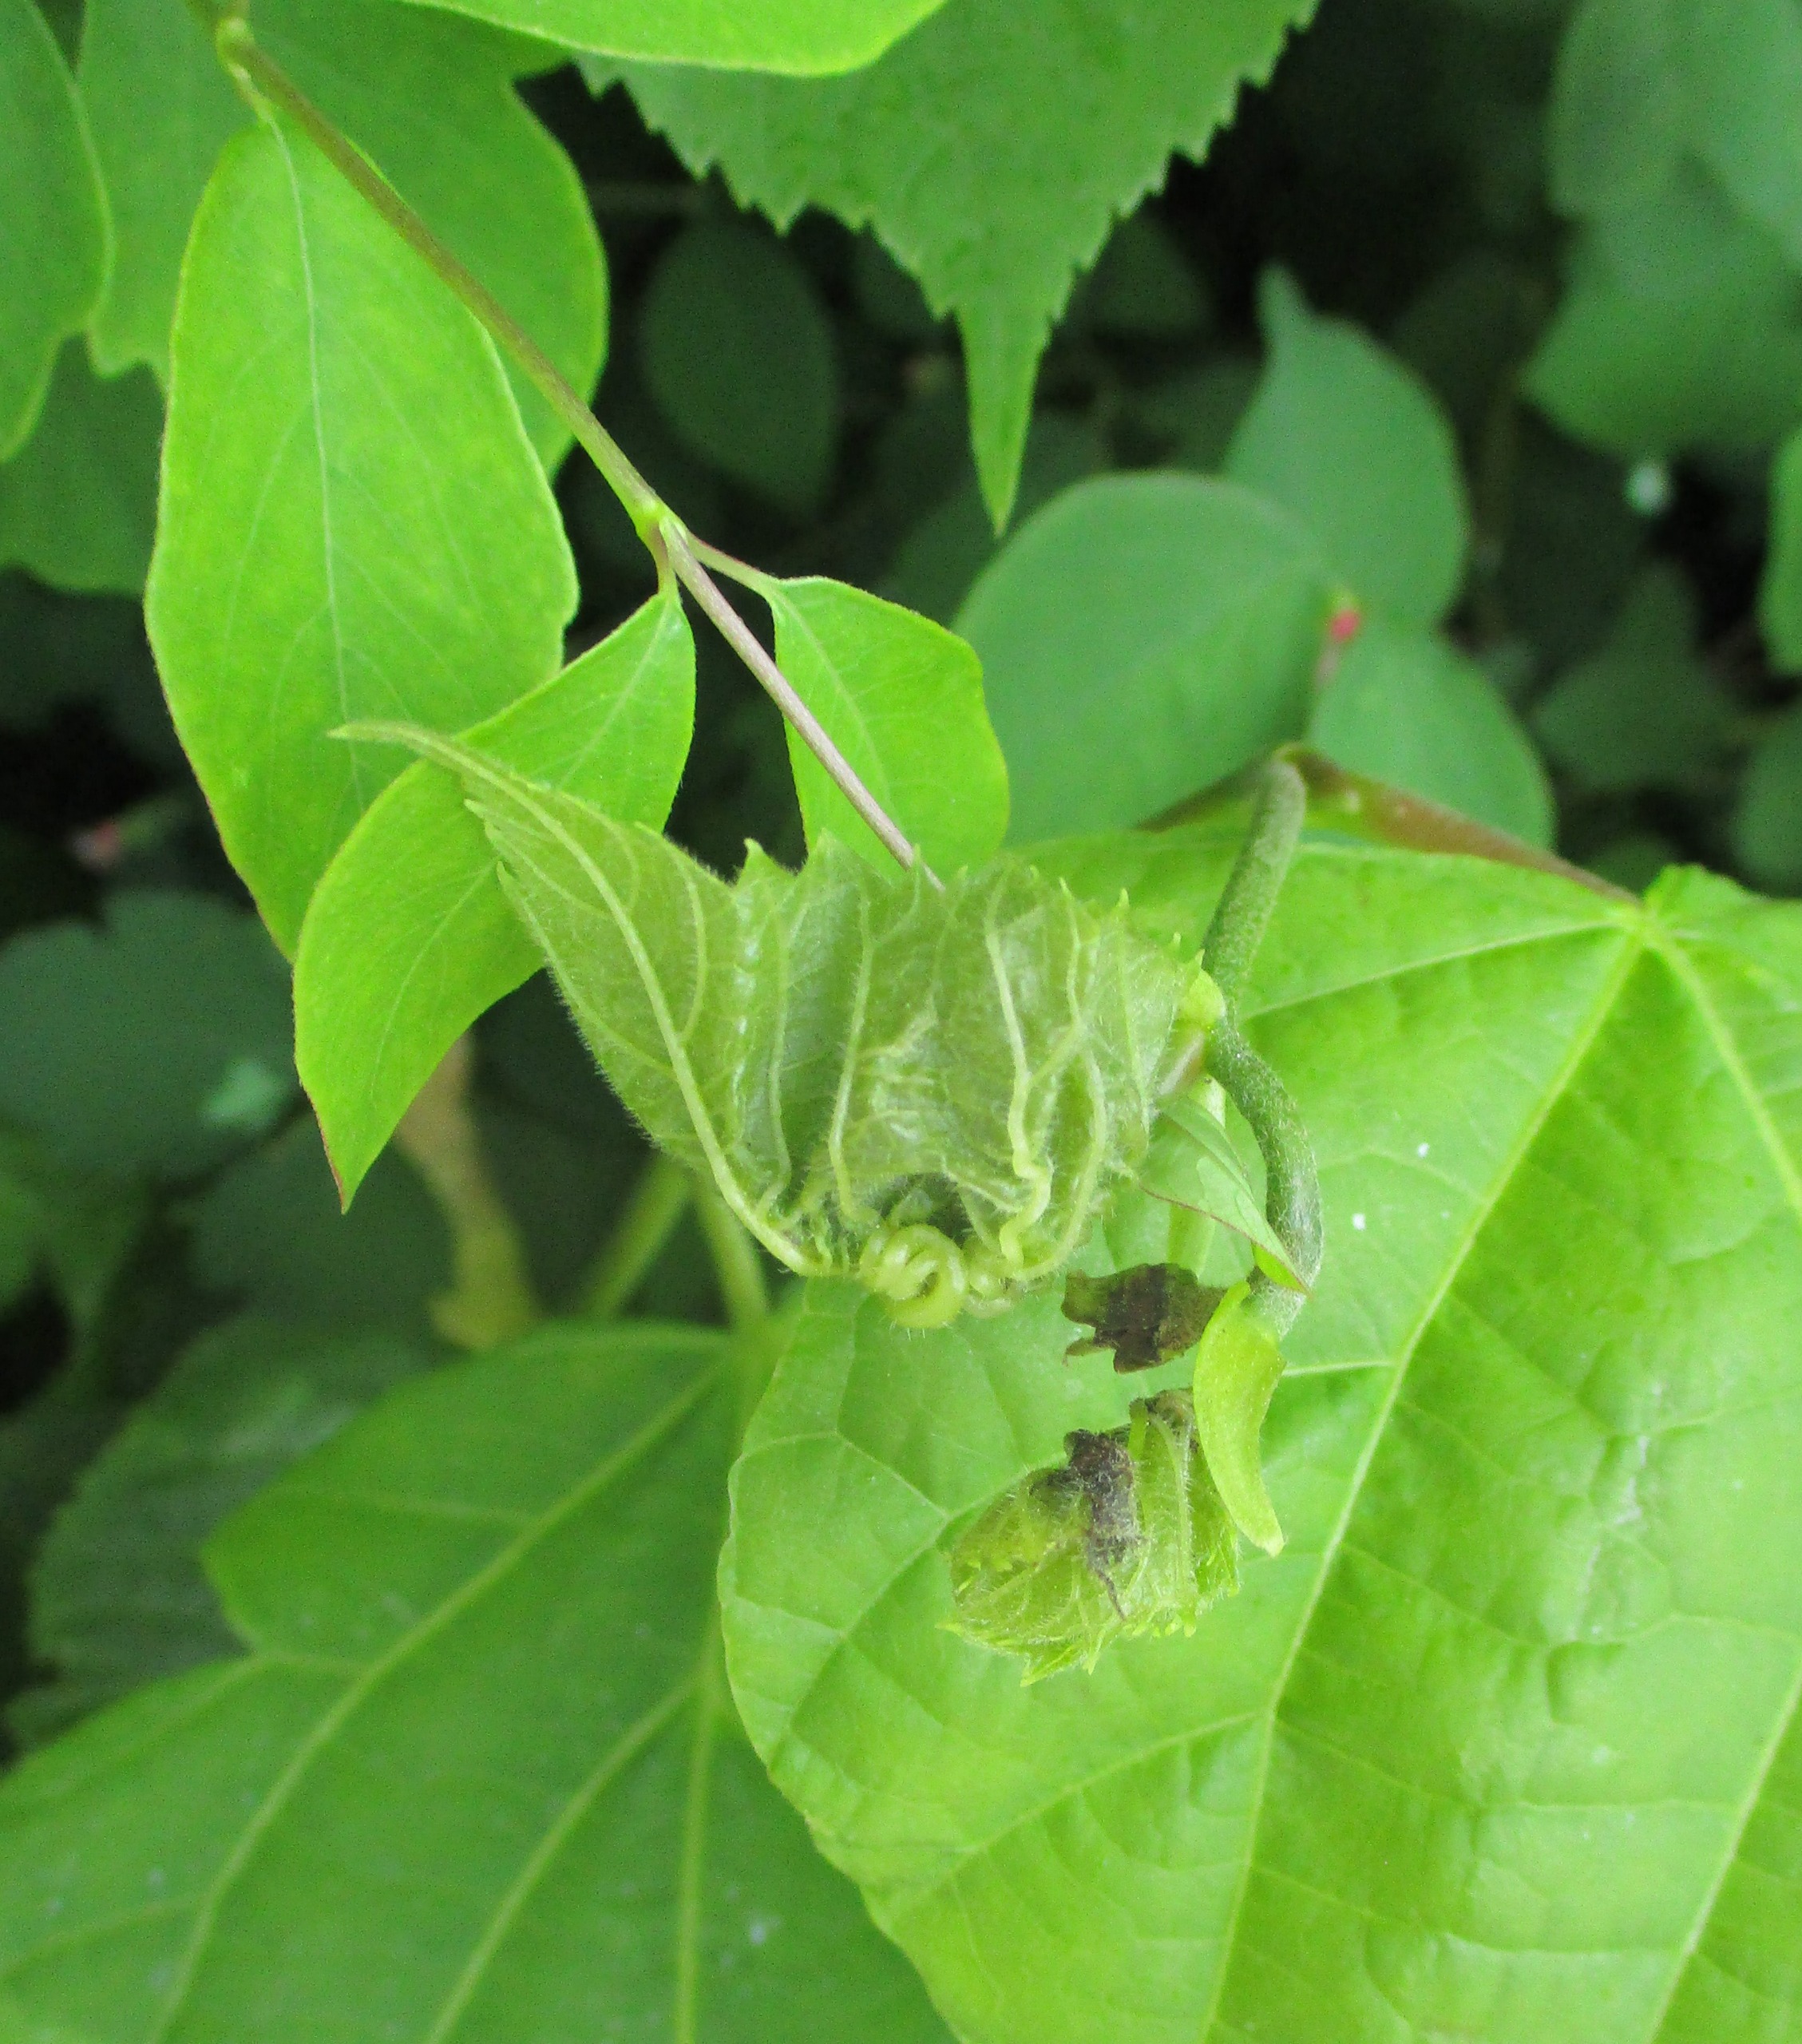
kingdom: Animalia
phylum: Arthropoda
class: Insecta
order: Diptera
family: Cecidomyiidae
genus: Dasineura
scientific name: Dasineura thomasiana
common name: Lindekrusegalmyg
